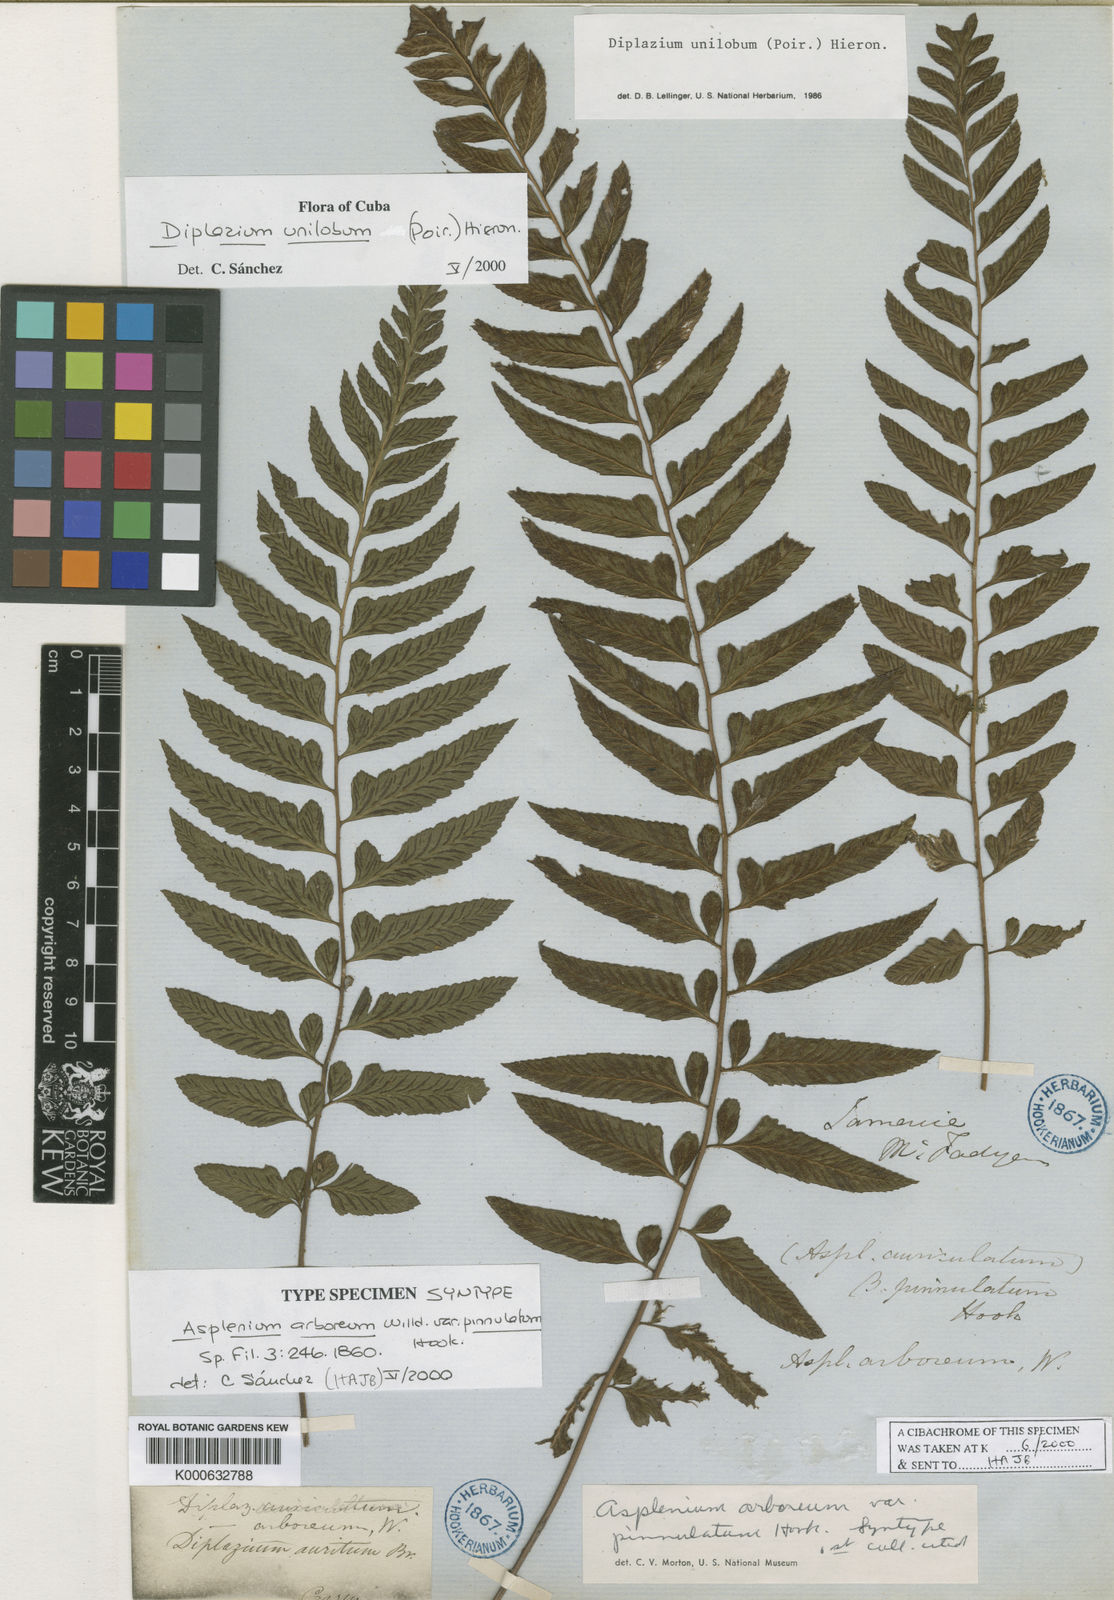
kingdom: Plantae
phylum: Tracheophyta
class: Polypodiopsida
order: Polypodiales
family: Athyriaceae
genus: Diplazium
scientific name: Diplazium unilobum
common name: Singlelobe twinsorus fern
